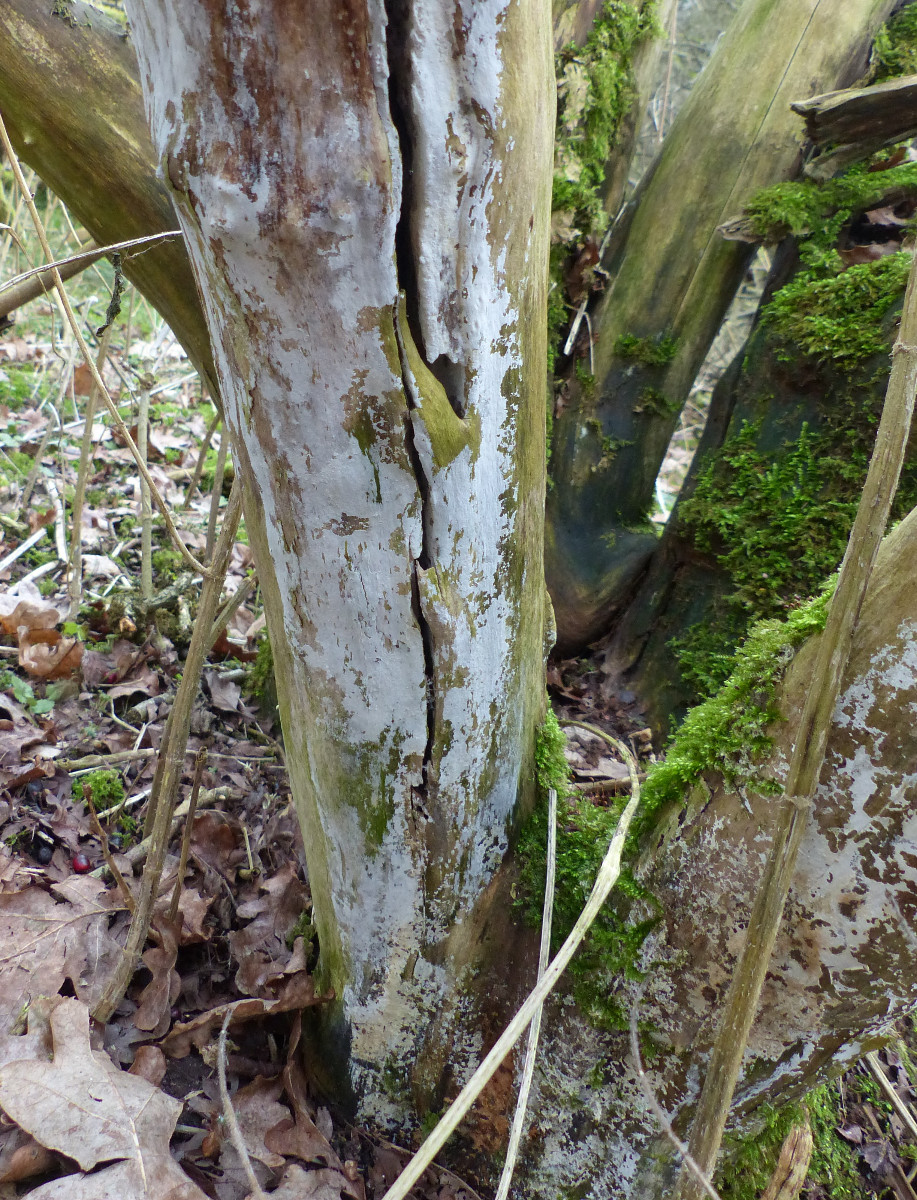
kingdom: Fungi
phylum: Basidiomycota
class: Agaricomycetes
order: Corticiales
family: Corticiaceae
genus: Lyomyces
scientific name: Lyomyces sambuci
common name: almindelig hyldehinde
